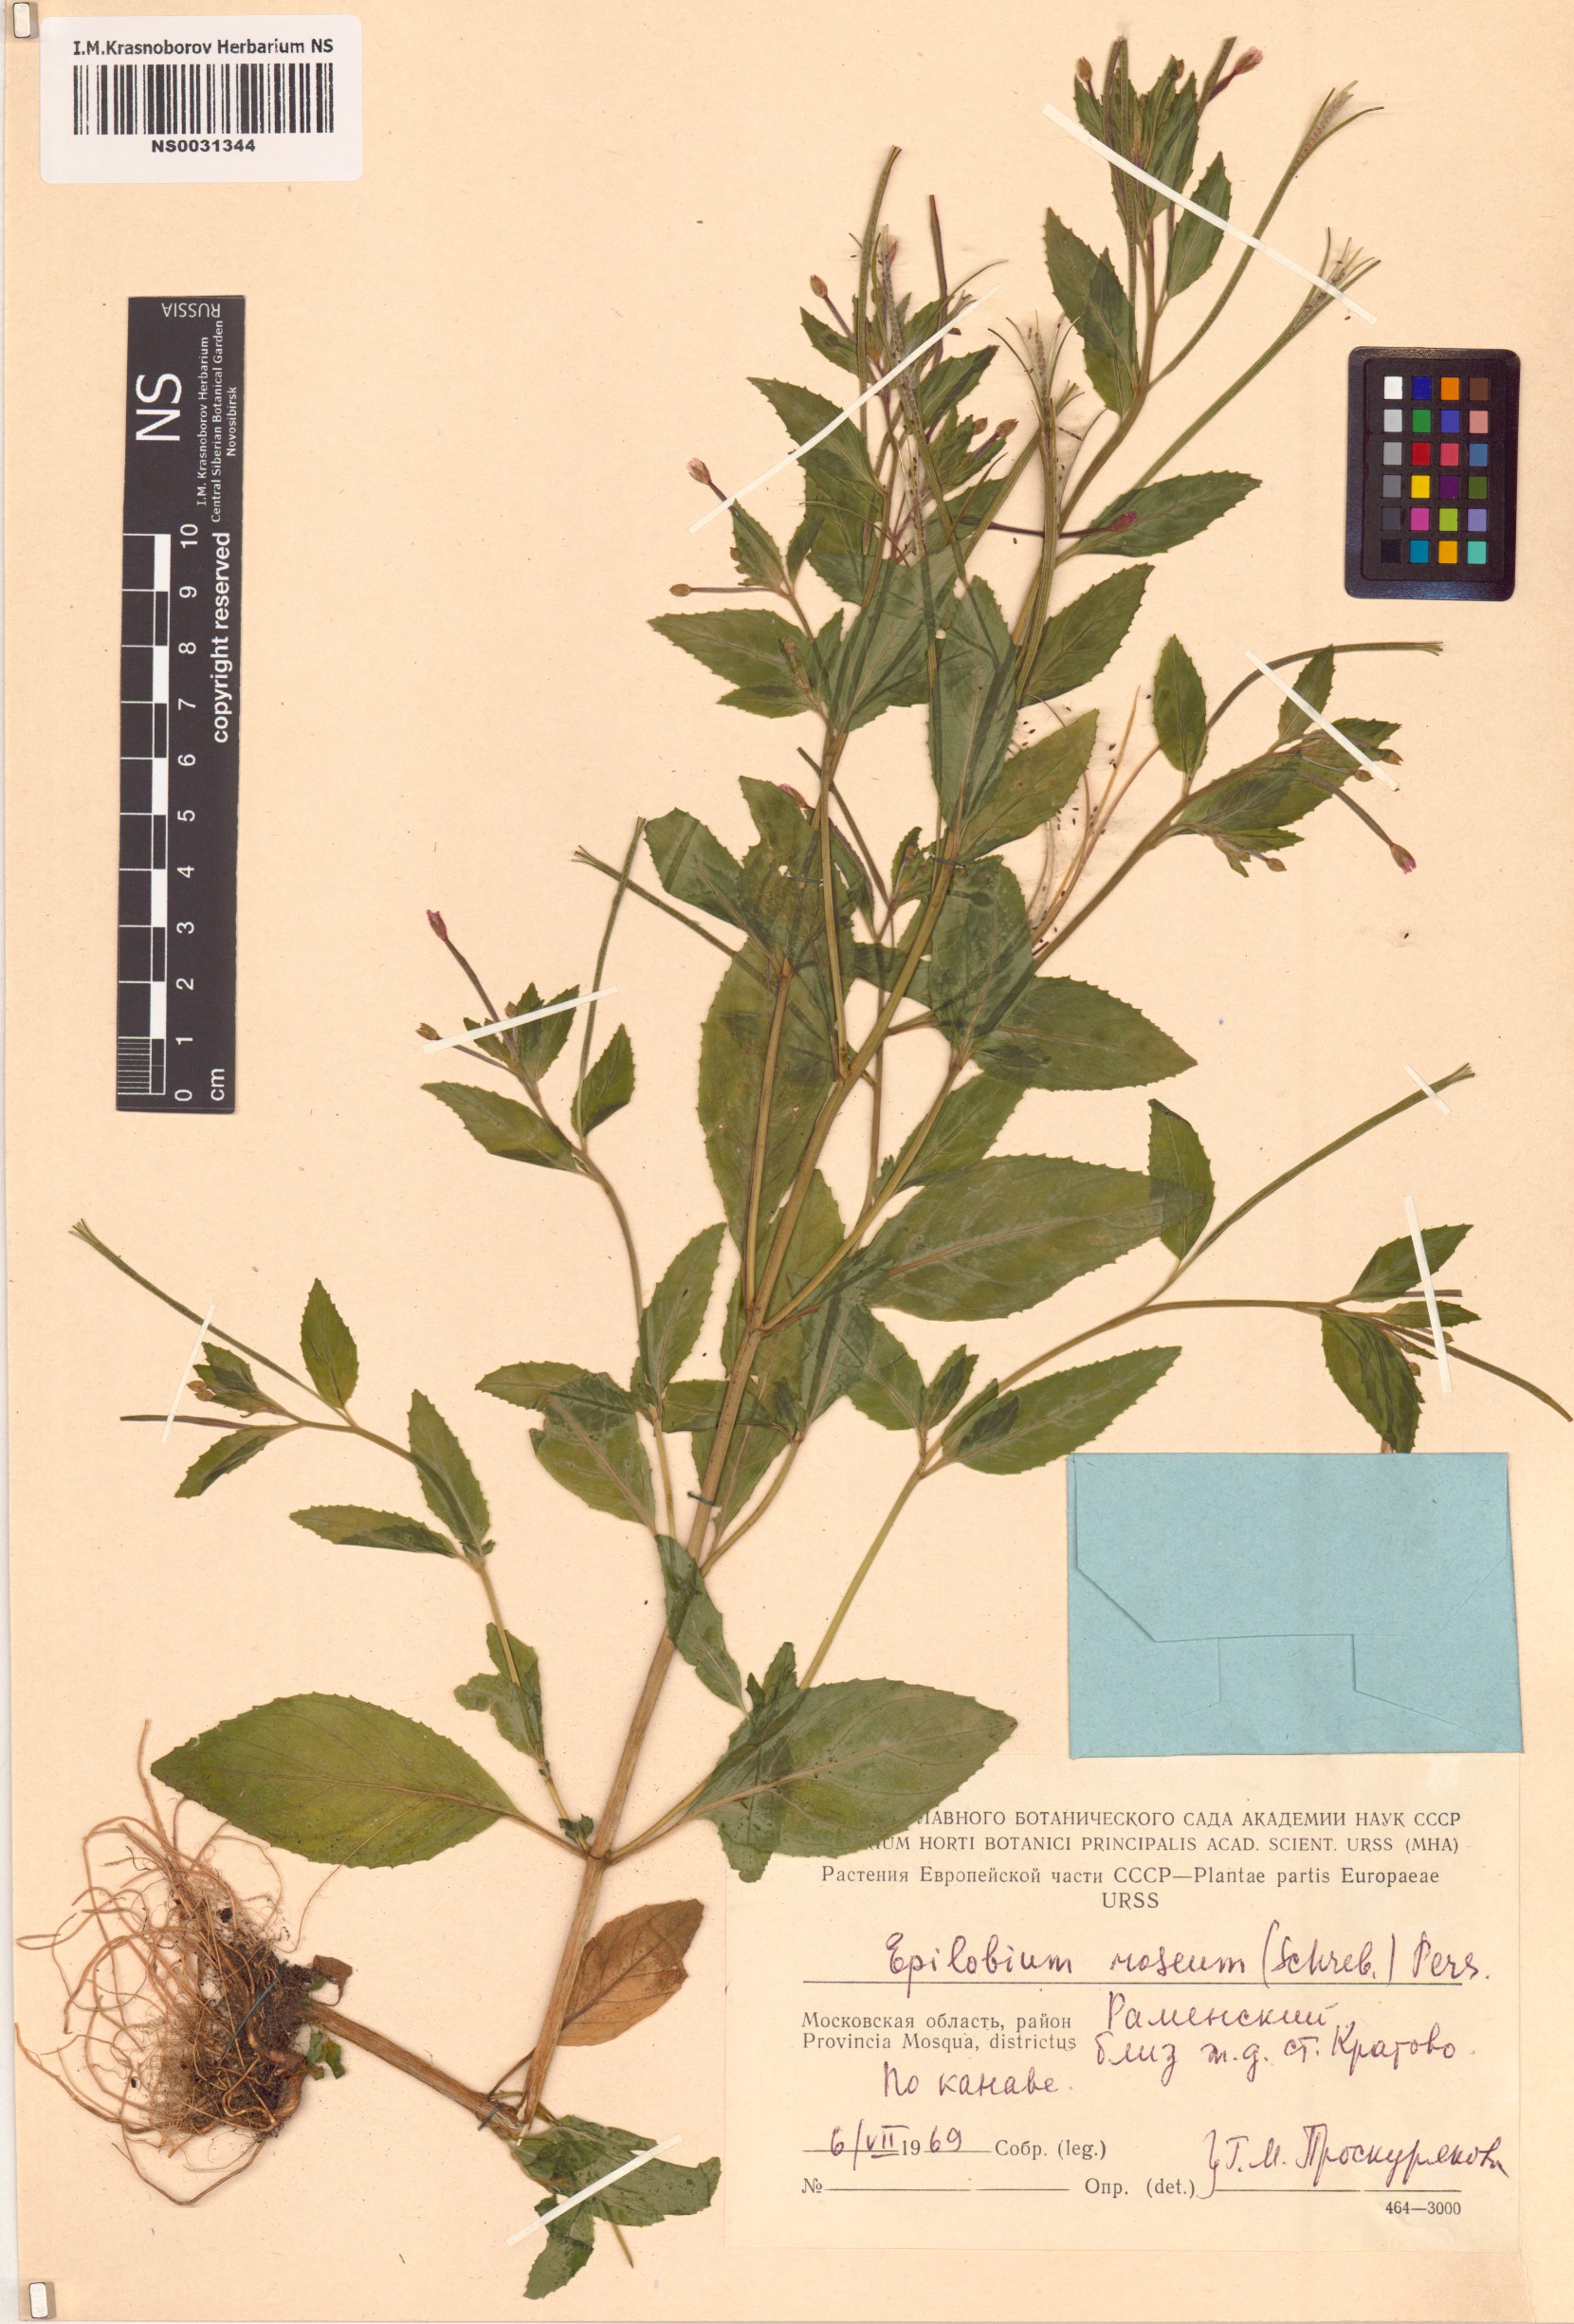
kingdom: Plantae
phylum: Tracheophyta
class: Magnoliopsida
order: Myrtales
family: Onagraceae
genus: Epilobium
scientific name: Epilobium roseum
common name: Pale willowherb
